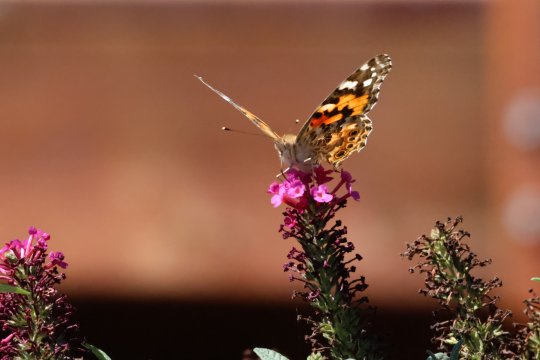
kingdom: Animalia
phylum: Arthropoda
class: Insecta
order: Lepidoptera
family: Nymphalidae
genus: Vanessa
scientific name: Vanessa cardui
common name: Painted Lady
